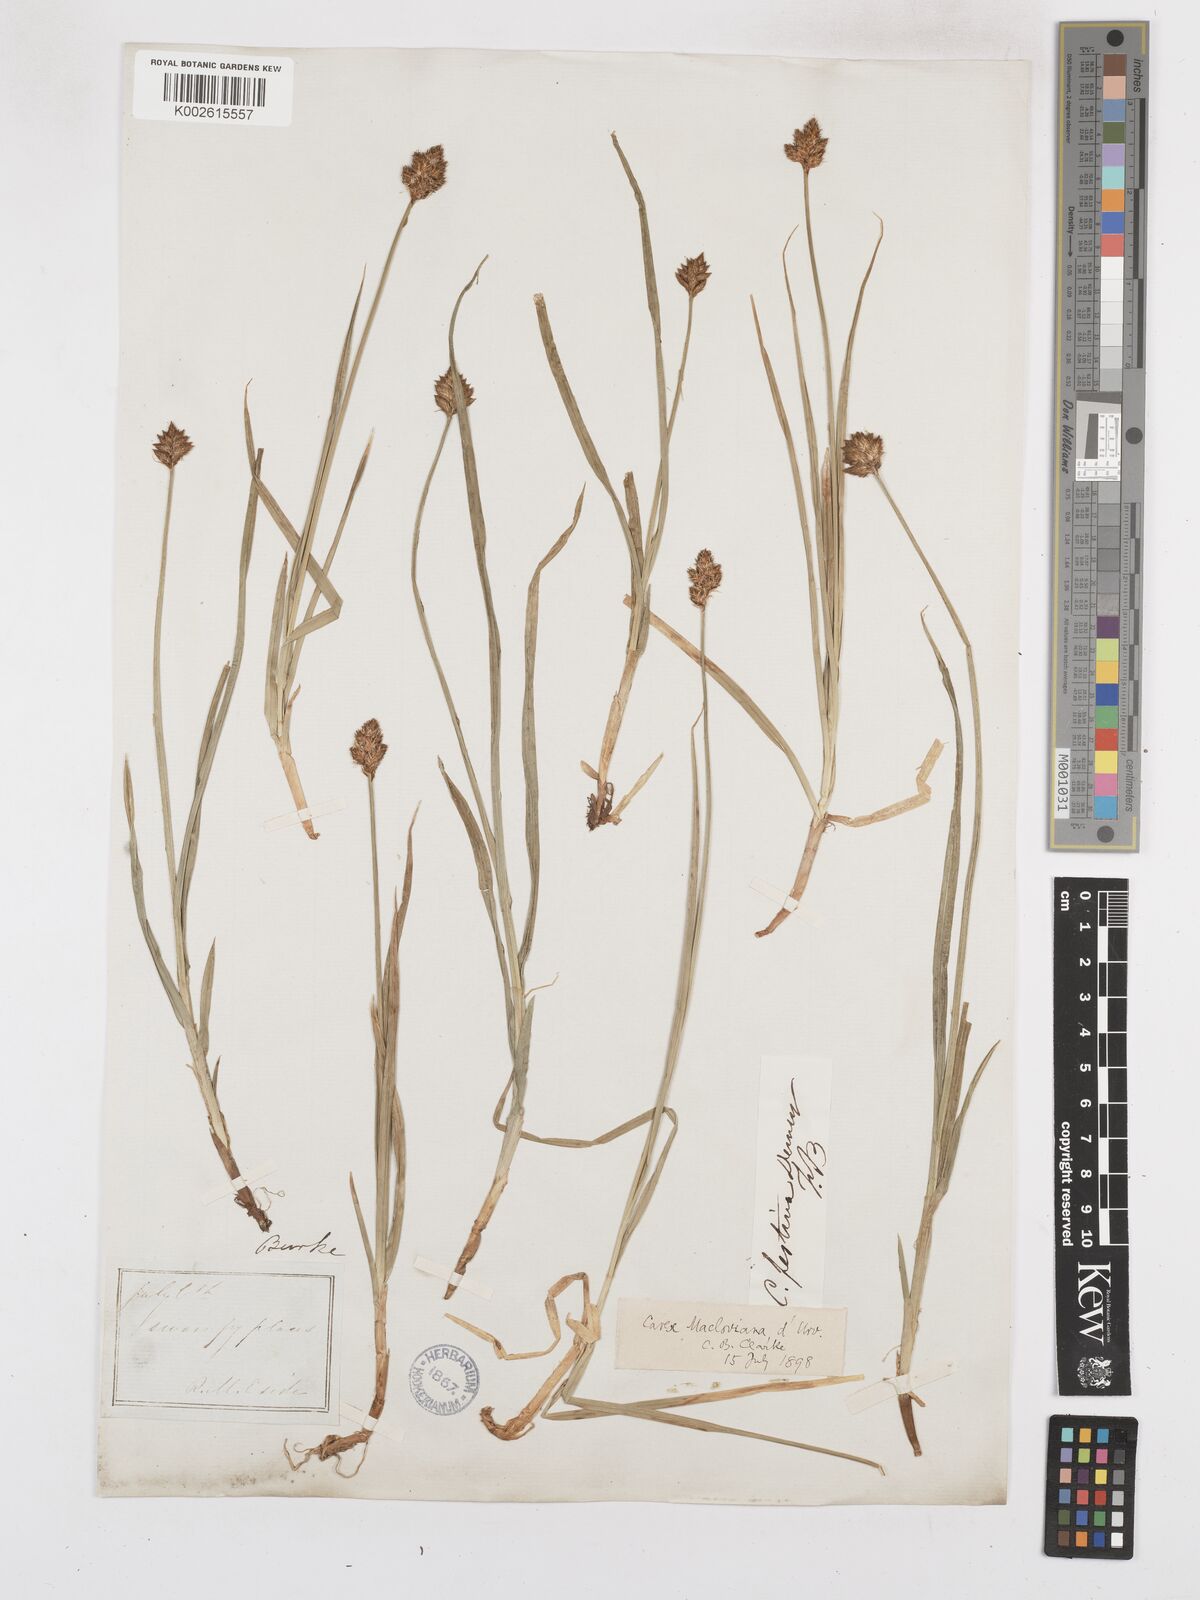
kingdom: Plantae
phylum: Tracheophyta
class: Liliopsida
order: Poales
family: Cyperaceae
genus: Carex
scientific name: Carex macloviana
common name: Falkland island sedge
